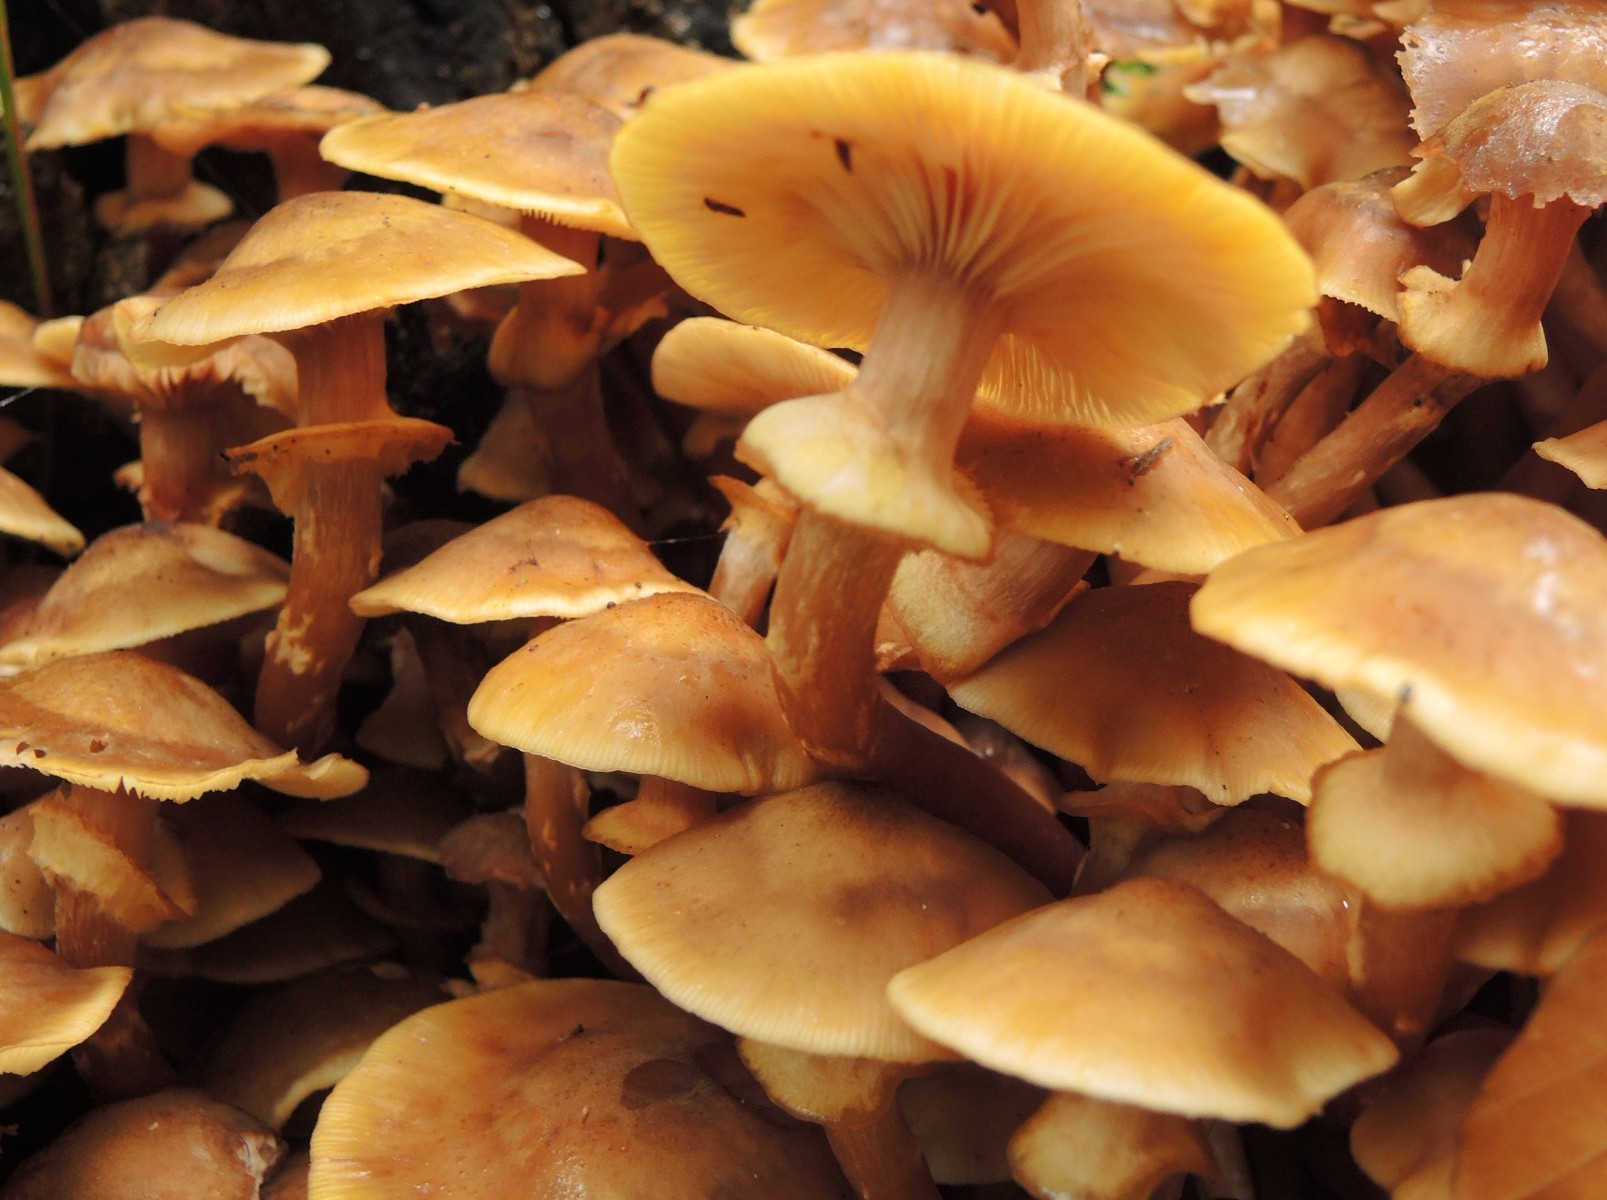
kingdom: Fungi
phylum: Basidiomycota
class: Agaricomycetes
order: Agaricales
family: Physalacriaceae
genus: Armillaria
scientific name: Armillaria mellea
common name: ægte honningsvamp
